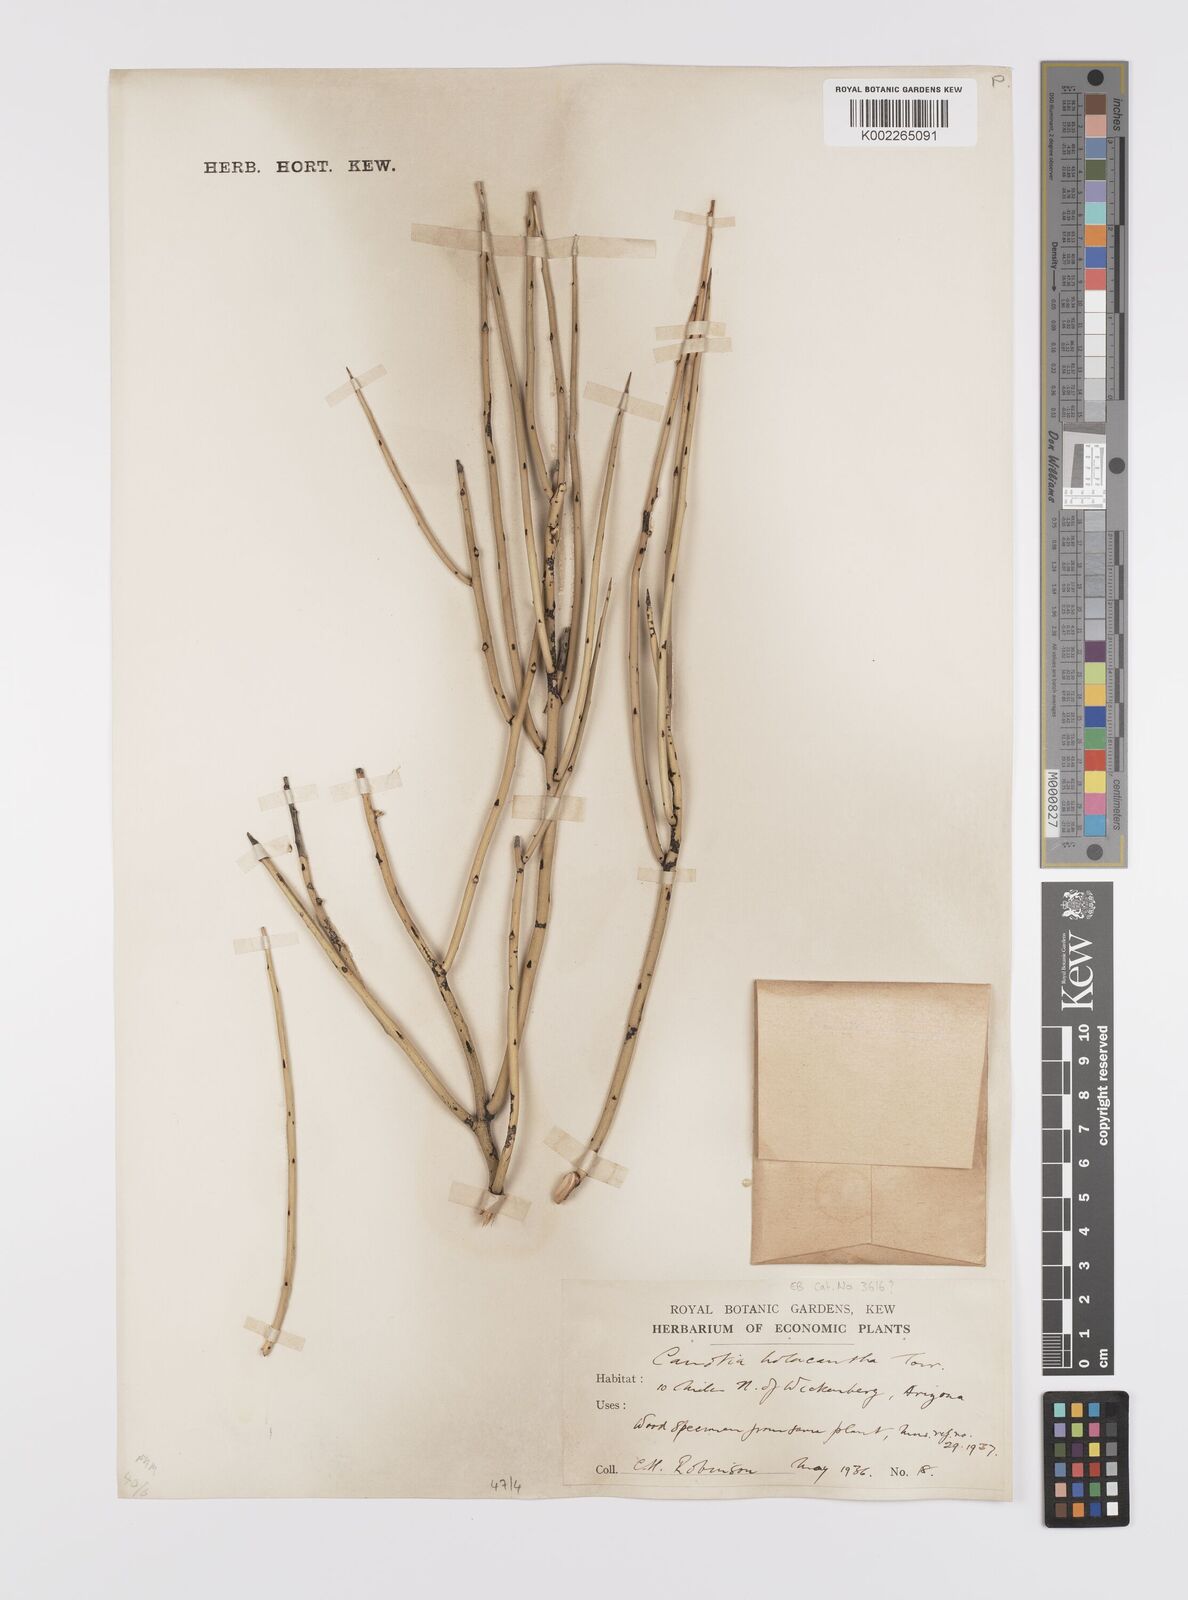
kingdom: Plantae
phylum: Tracheophyta
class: Magnoliopsida
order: Celastrales
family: Celastraceae
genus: Canotia
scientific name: Canotia holacantha
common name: Crucifixion thorns
